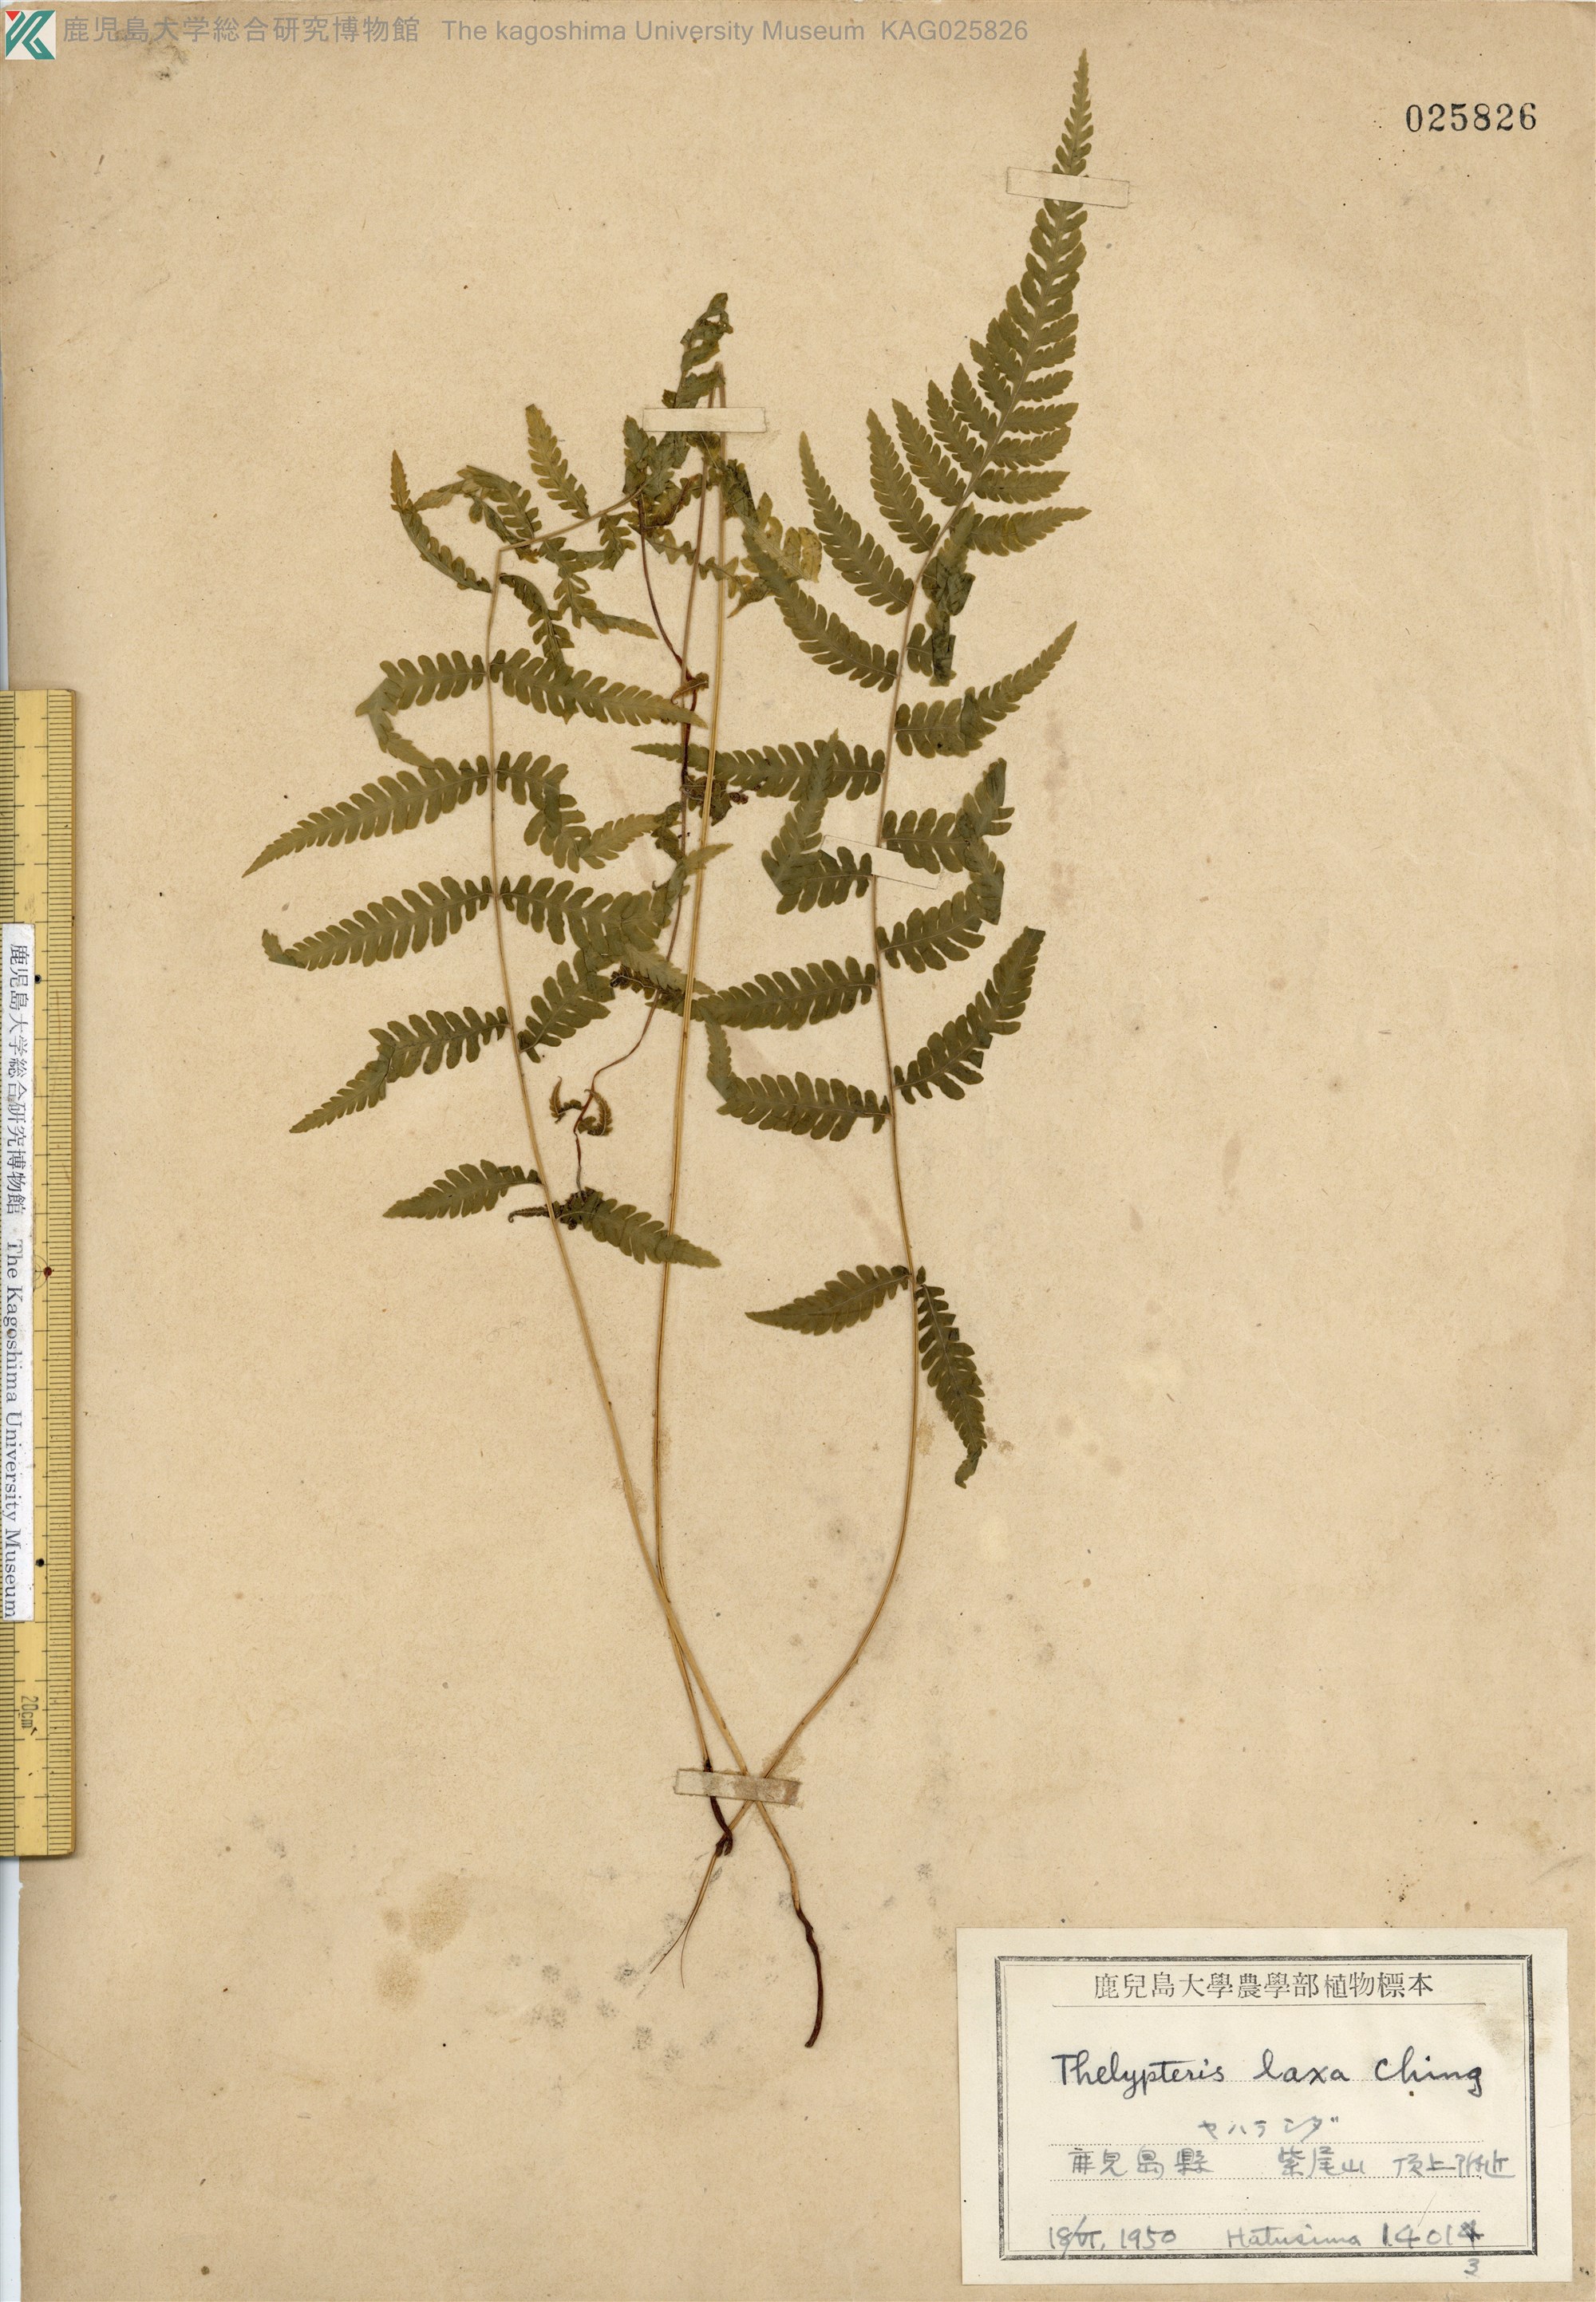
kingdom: Plantae
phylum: Tracheophyta
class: Polypodiopsida
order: Polypodiales
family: Thelypteridaceae
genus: Metathelypteris
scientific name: Metathelypteris laxa
